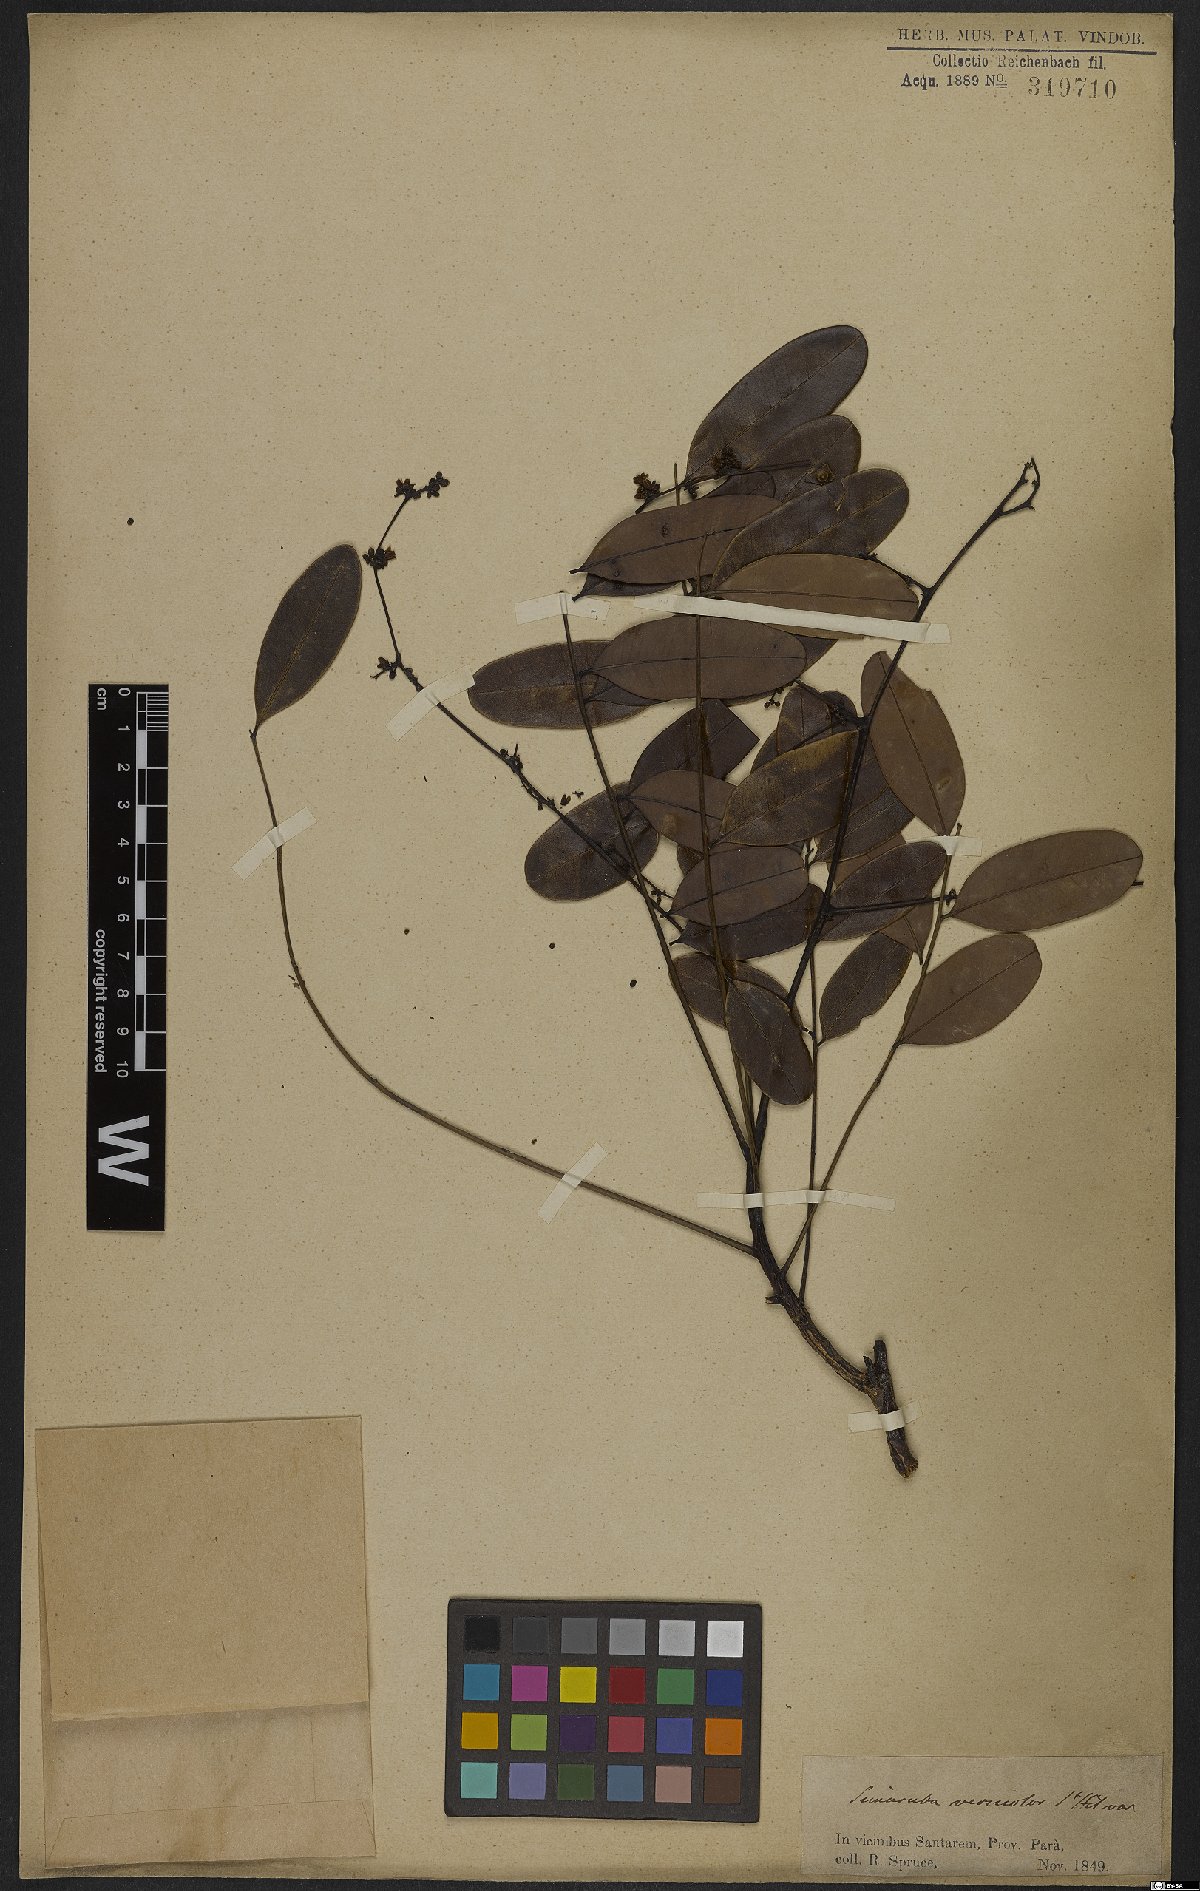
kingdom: Plantae
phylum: Tracheophyta
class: Magnoliopsida
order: Sapindales
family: Simaroubaceae
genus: Simarouba
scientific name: Simarouba versicolor
